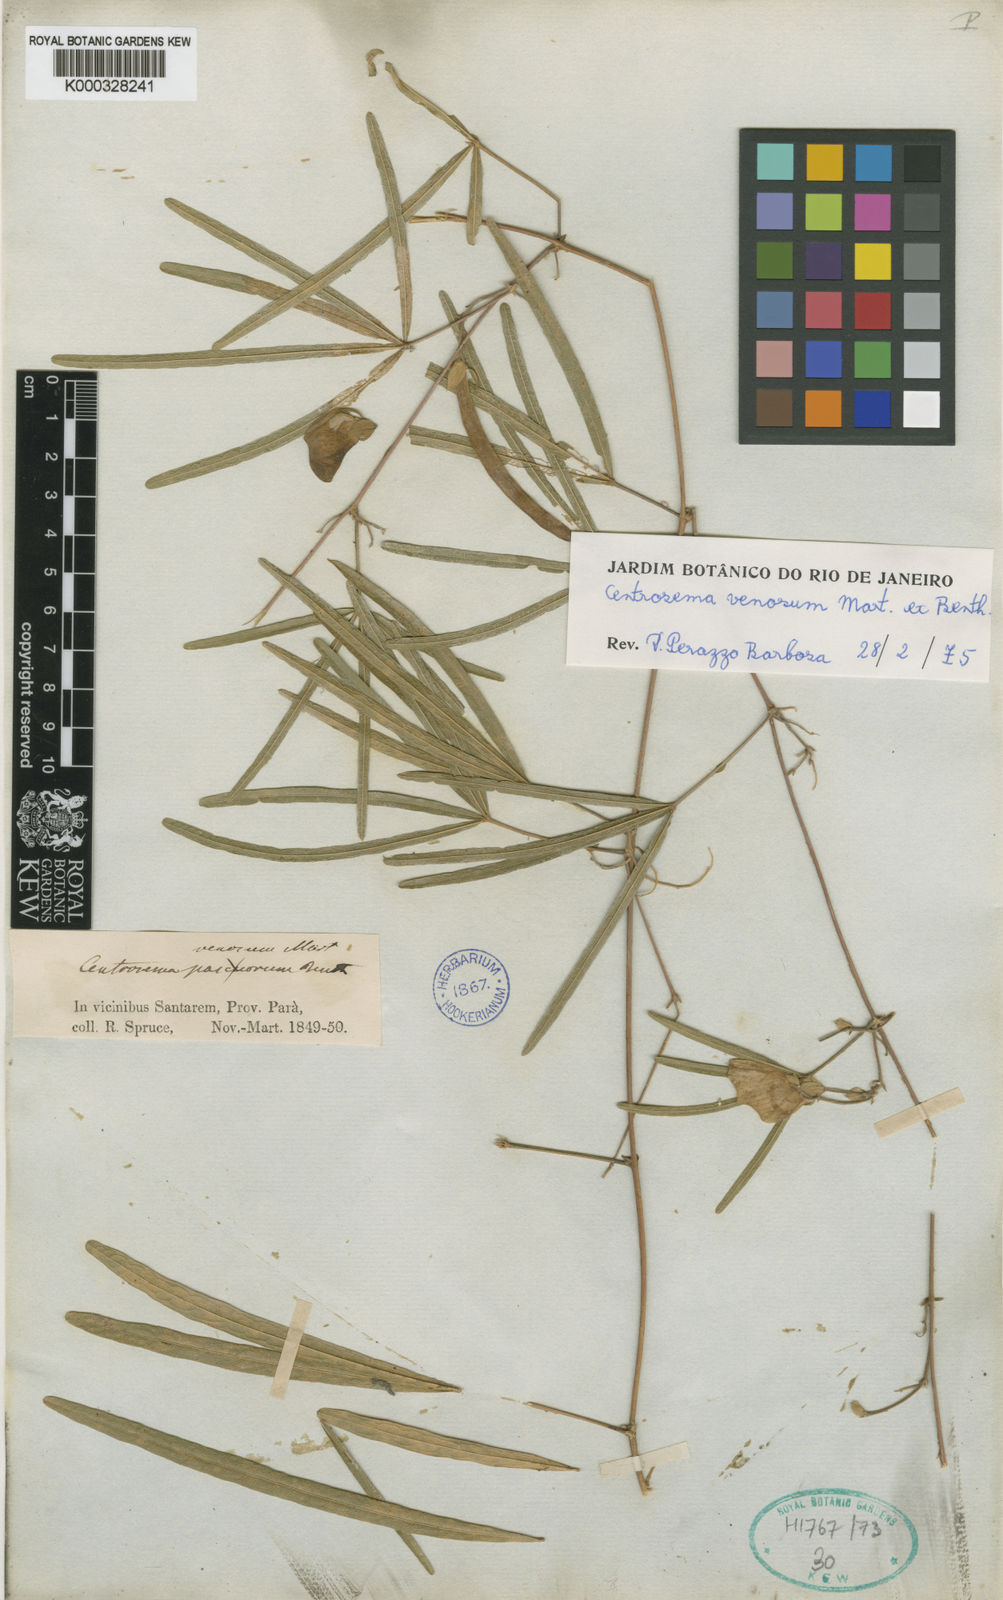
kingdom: Plantae
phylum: Tracheophyta
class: Magnoliopsida
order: Fabales
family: Fabaceae
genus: Centrosema
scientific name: Centrosema venosum
